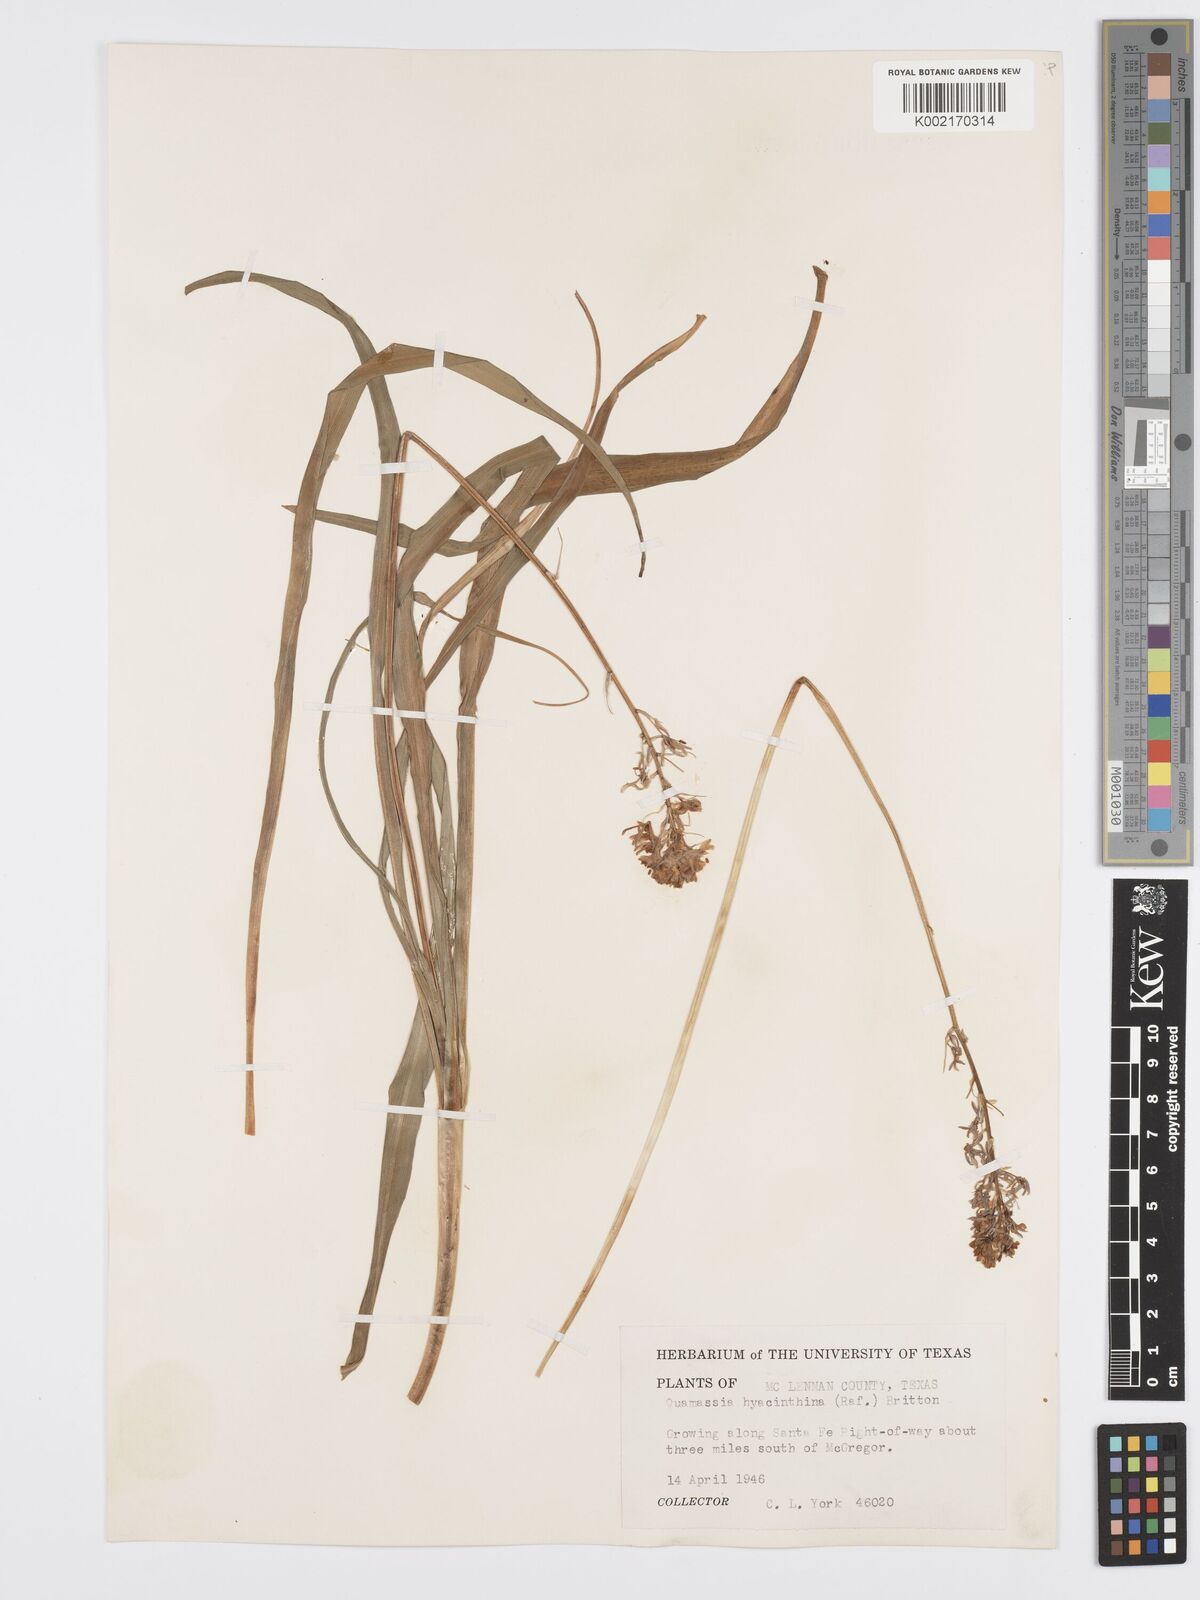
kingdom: Plantae
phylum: Tracheophyta
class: Liliopsida
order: Asparagales
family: Asparagaceae
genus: Camassia
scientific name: Camassia scilloides
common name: Wild hyacinth
